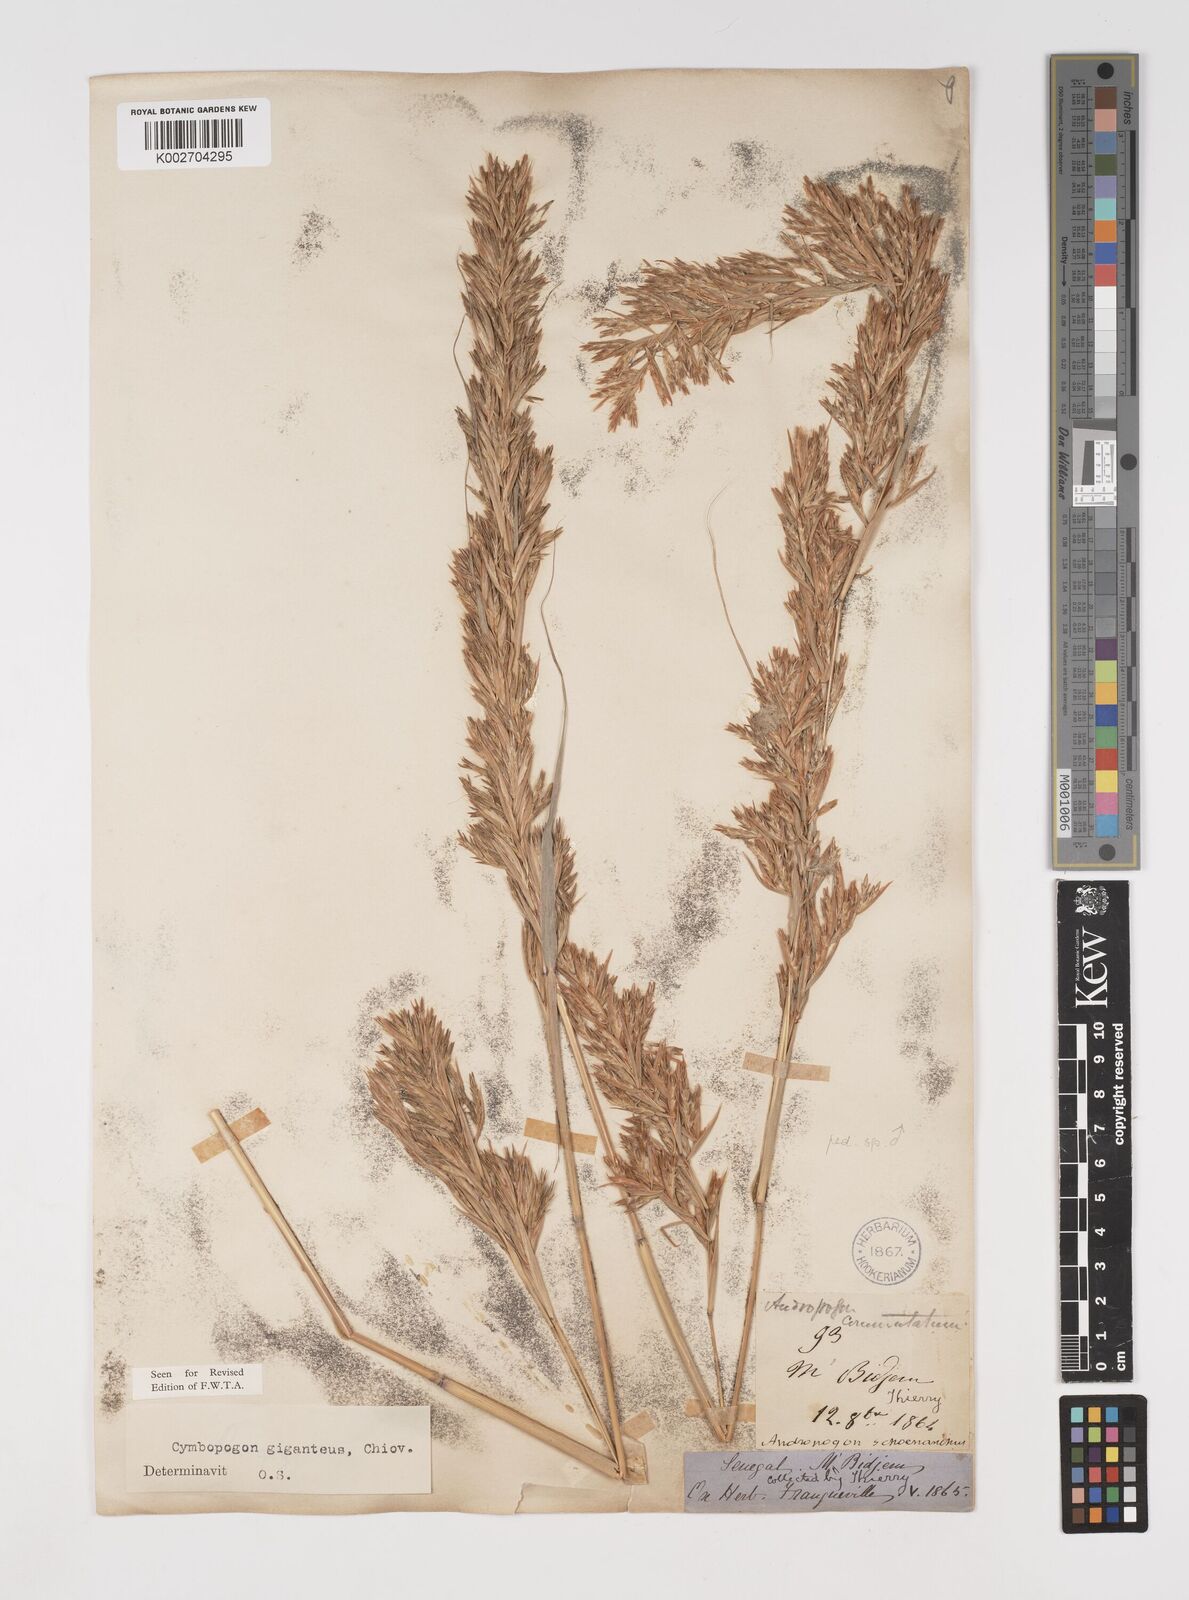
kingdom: Plantae
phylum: Tracheophyta
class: Liliopsida
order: Poales
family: Poaceae
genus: Cymbopogon
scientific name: Cymbopogon giganteus
